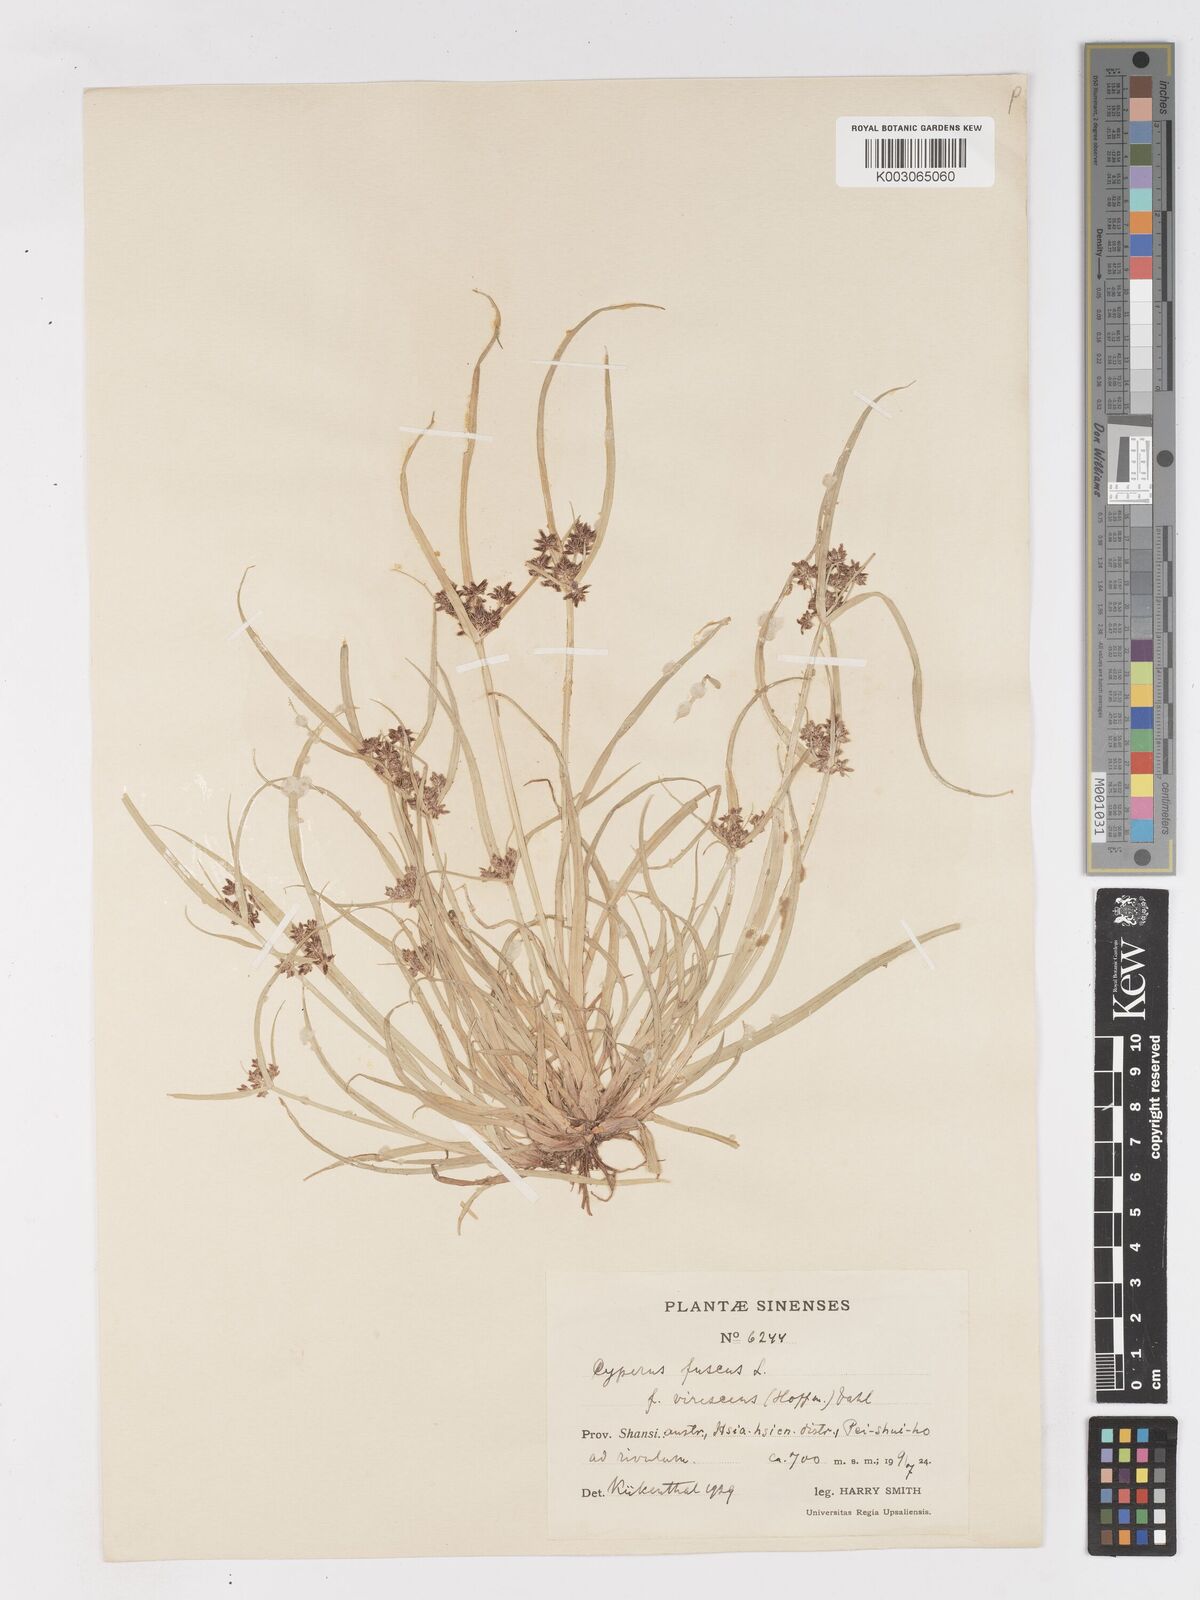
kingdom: Plantae
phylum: Tracheophyta
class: Liliopsida
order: Poales
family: Cyperaceae
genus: Cyperus
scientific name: Cyperus fuscus
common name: Brown galingale
